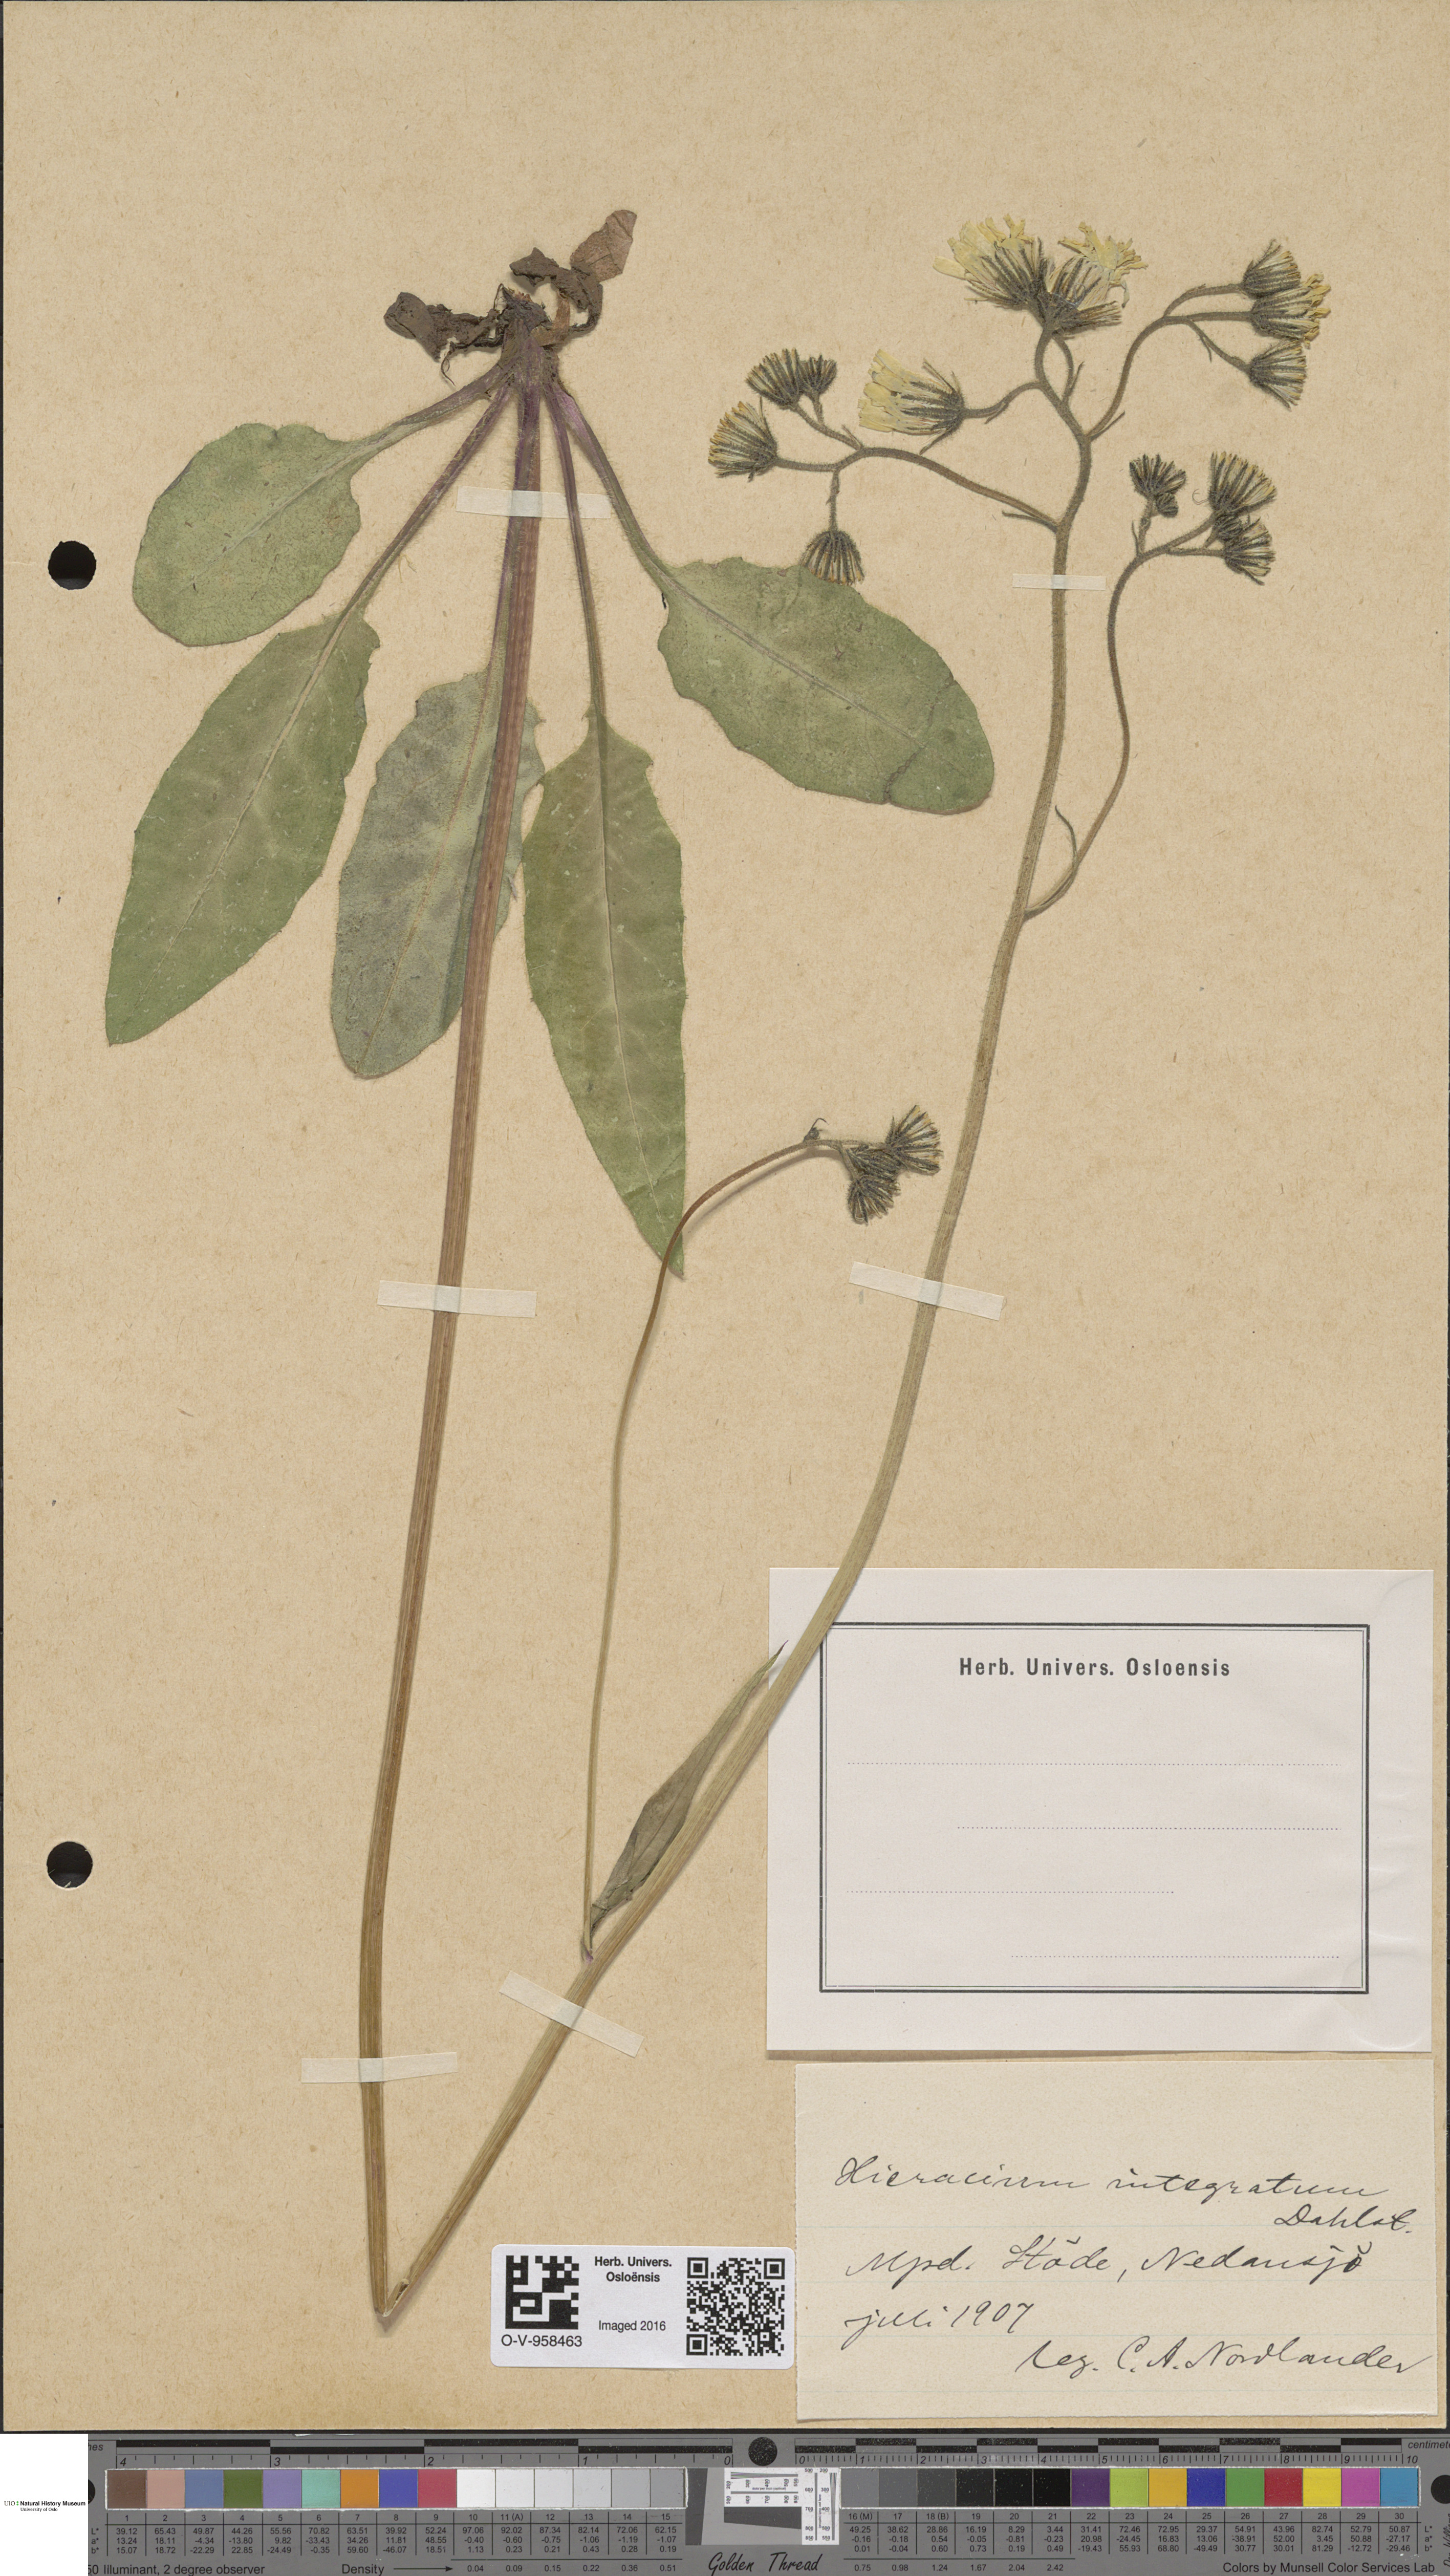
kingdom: Plantae
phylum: Tracheophyta
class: Magnoliopsida
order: Asterales
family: Asteraceae
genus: Hieracium
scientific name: Hieracium murorum
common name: Wall hawkweed
